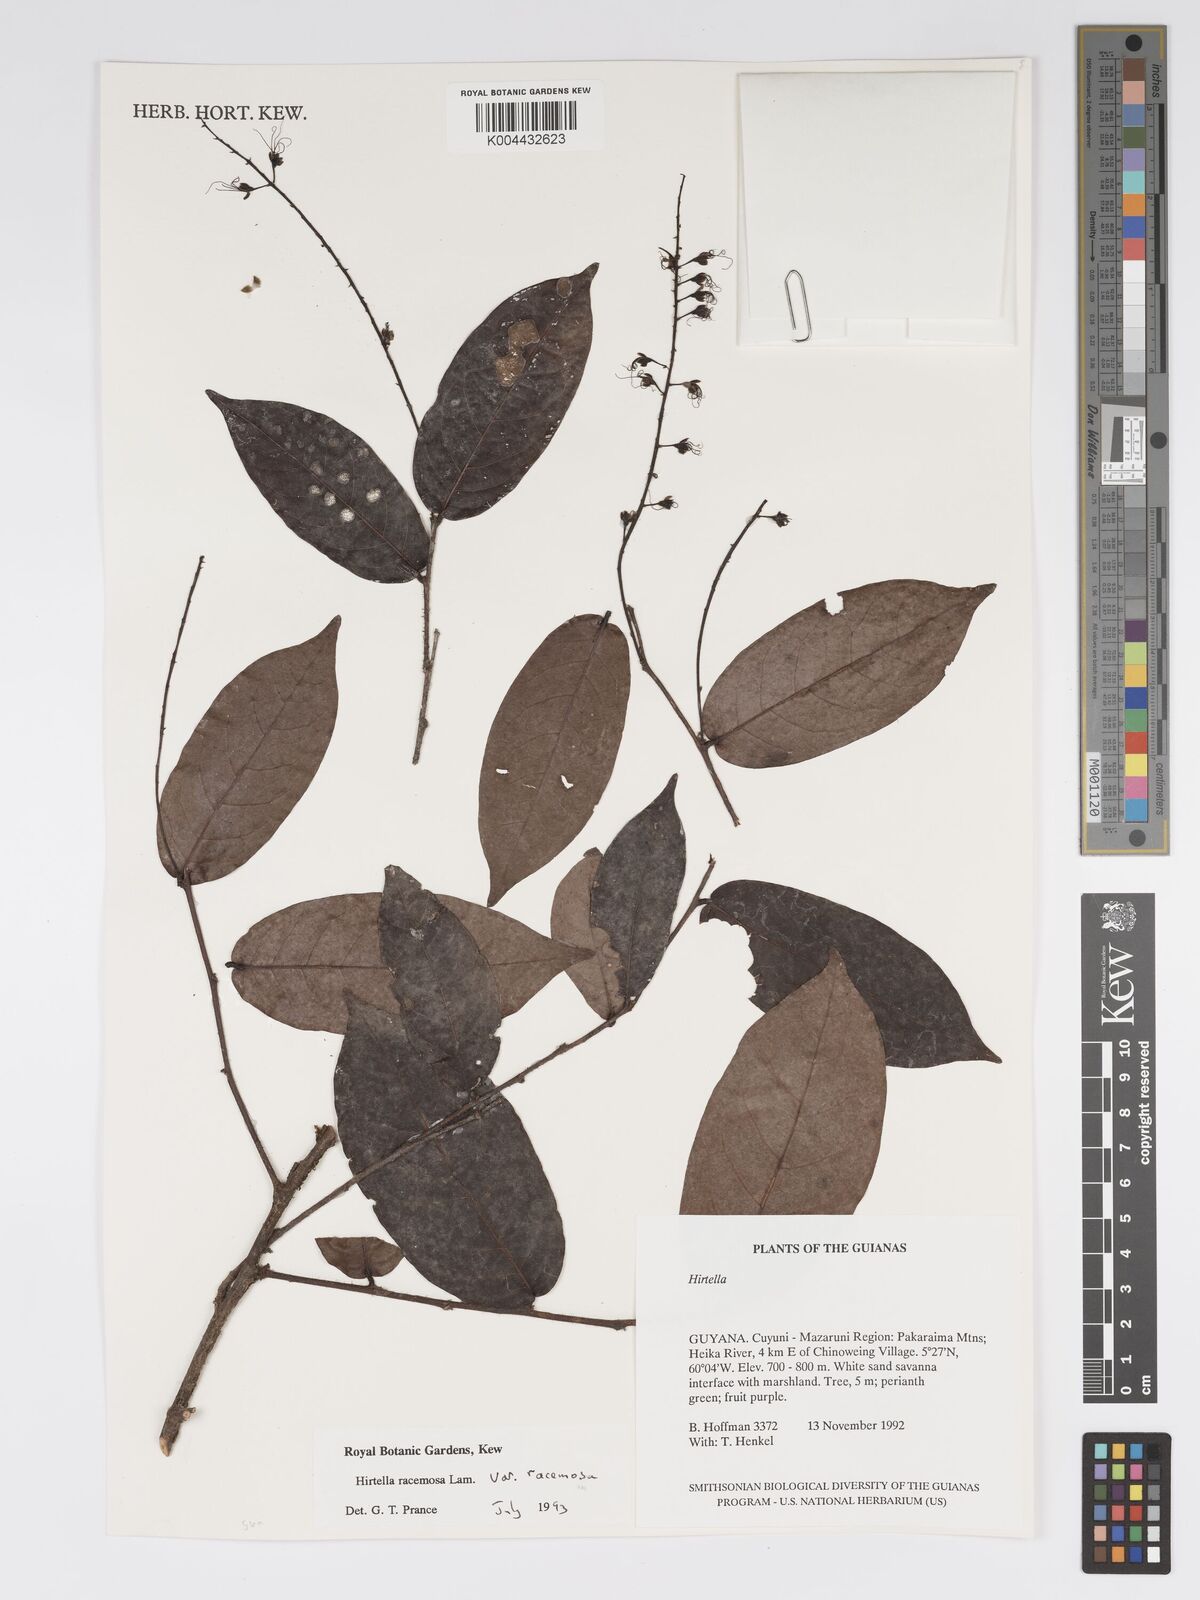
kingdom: Plantae
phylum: Tracheophyta
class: Magnoliopsida
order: Malpighiales
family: Chrysobalanaceae
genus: Hirtella
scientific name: Hirtella racemosa
